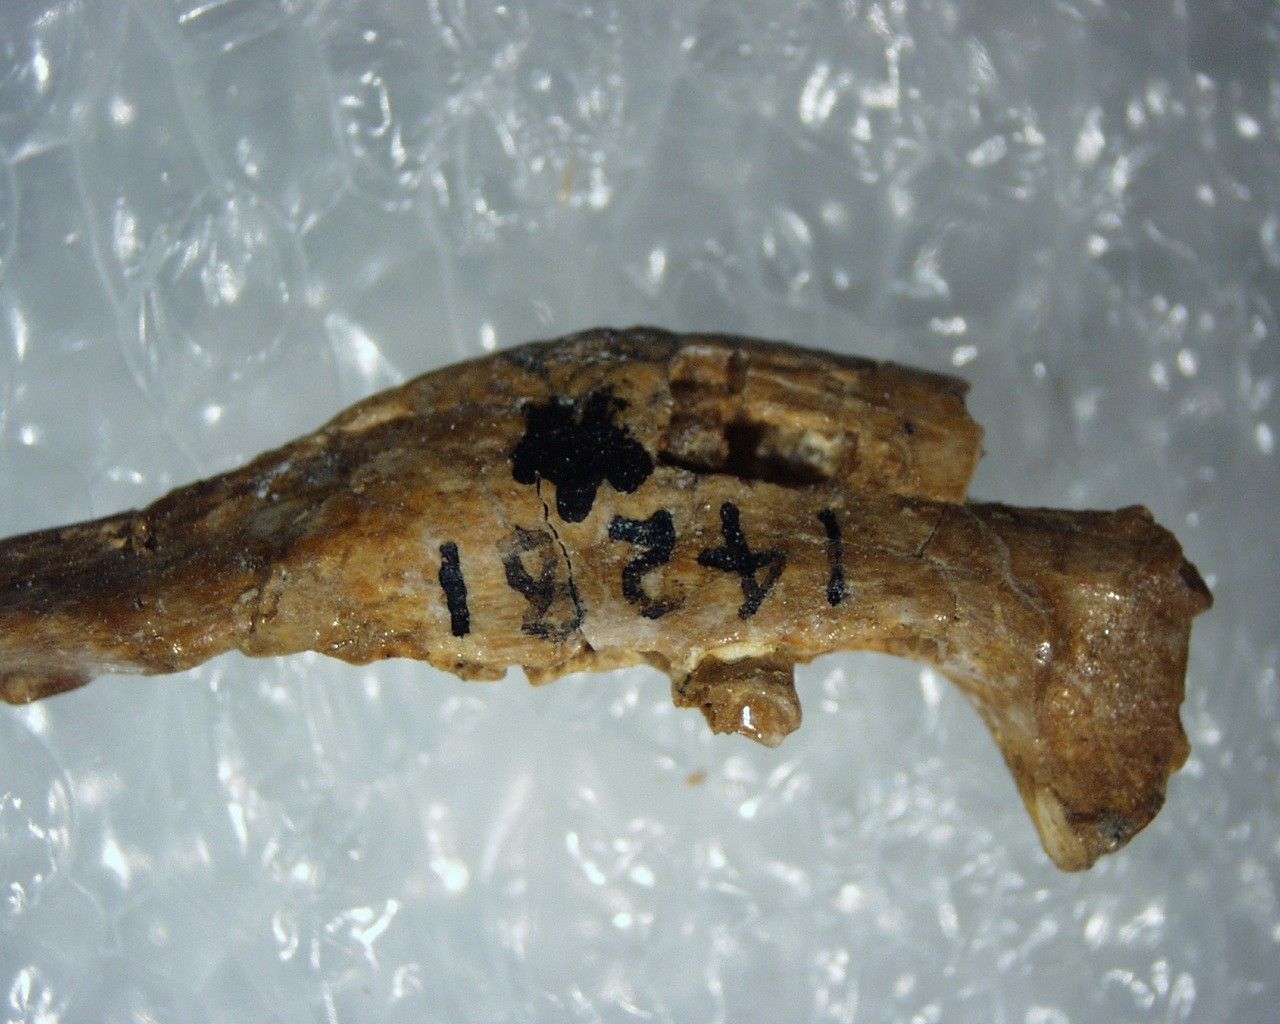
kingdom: Animalia
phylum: Chordata
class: Mammalia
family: Apatemyidae
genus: Jepsenella
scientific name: Jepsenella praepropera
